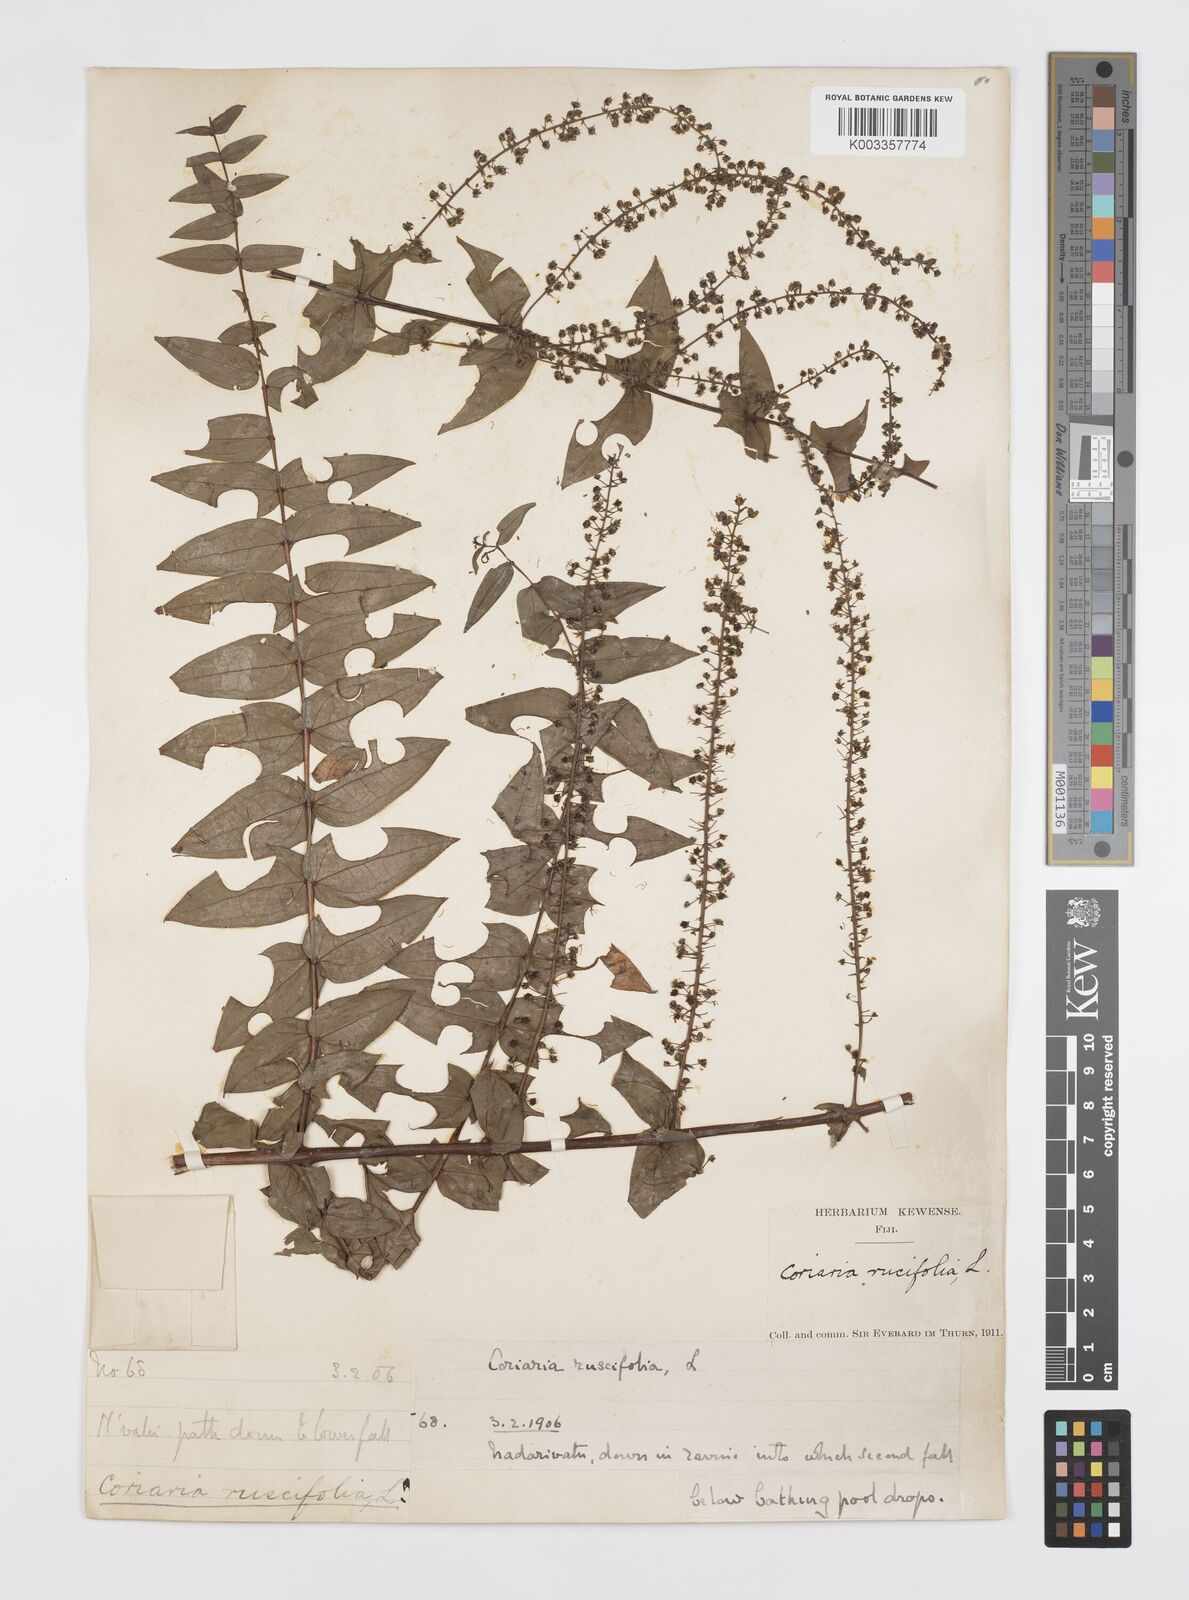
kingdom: Plantae
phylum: Tracheophyta
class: Magnoliopsida
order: Cucurbitales
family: Coriariaceae
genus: Coriaria
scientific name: Coriaria ruscifolia
